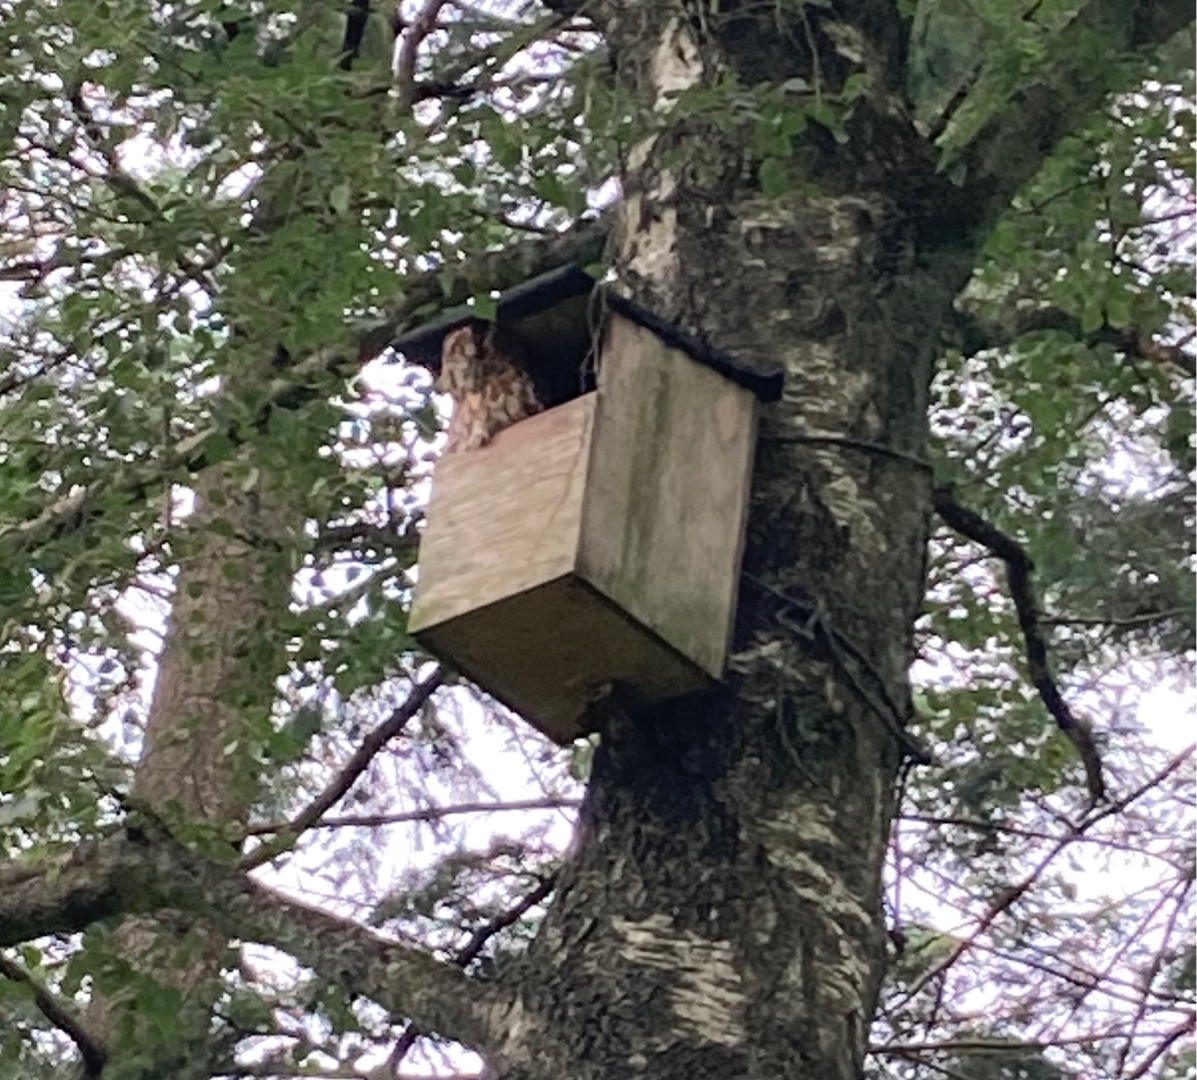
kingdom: Animalia
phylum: Chordata
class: Aves
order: Strigiformes
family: Strigidae
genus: Strix
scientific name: Strix aluco
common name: Natugle
